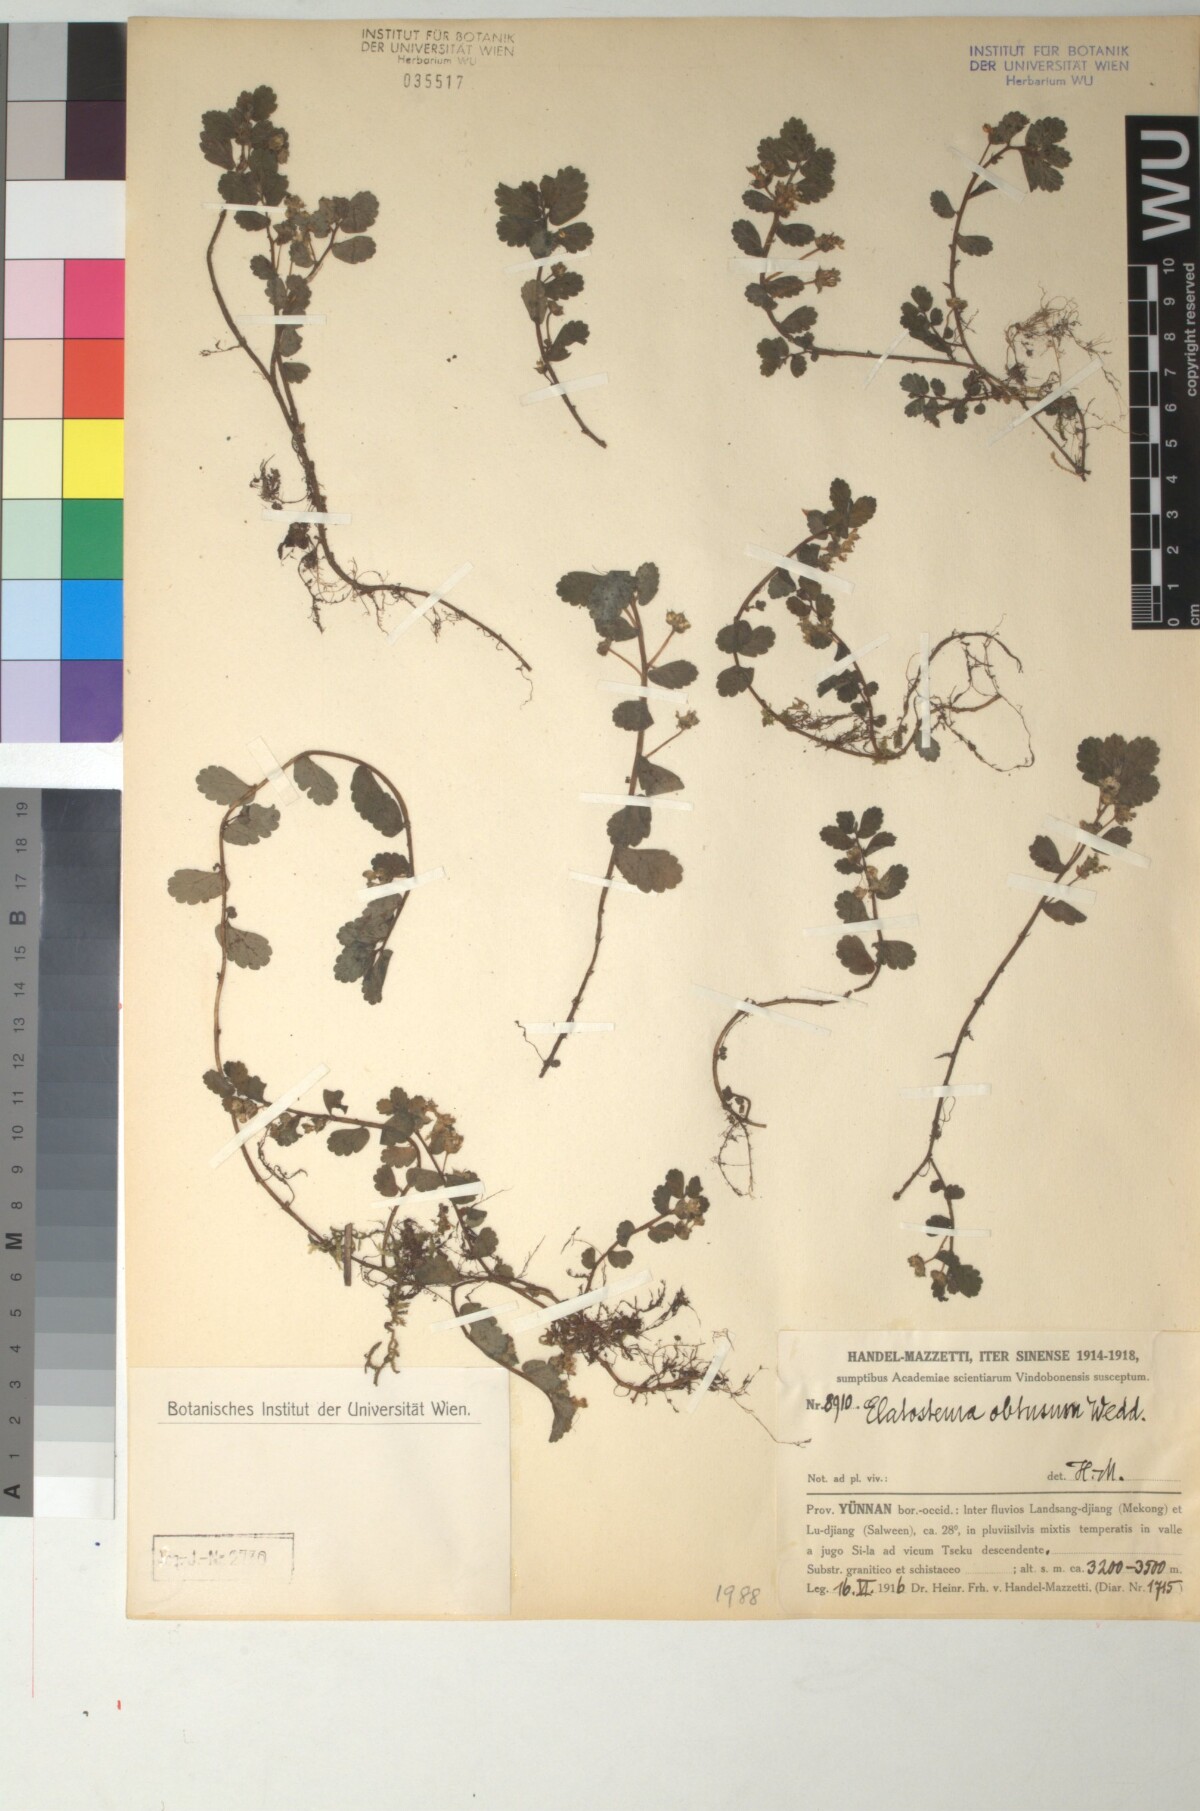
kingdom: Plantae
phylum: Tracheophyta
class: Magnoliopsida
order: Rosales
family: Urticaceae
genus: Elatostema
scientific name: Elatostema obtusum
